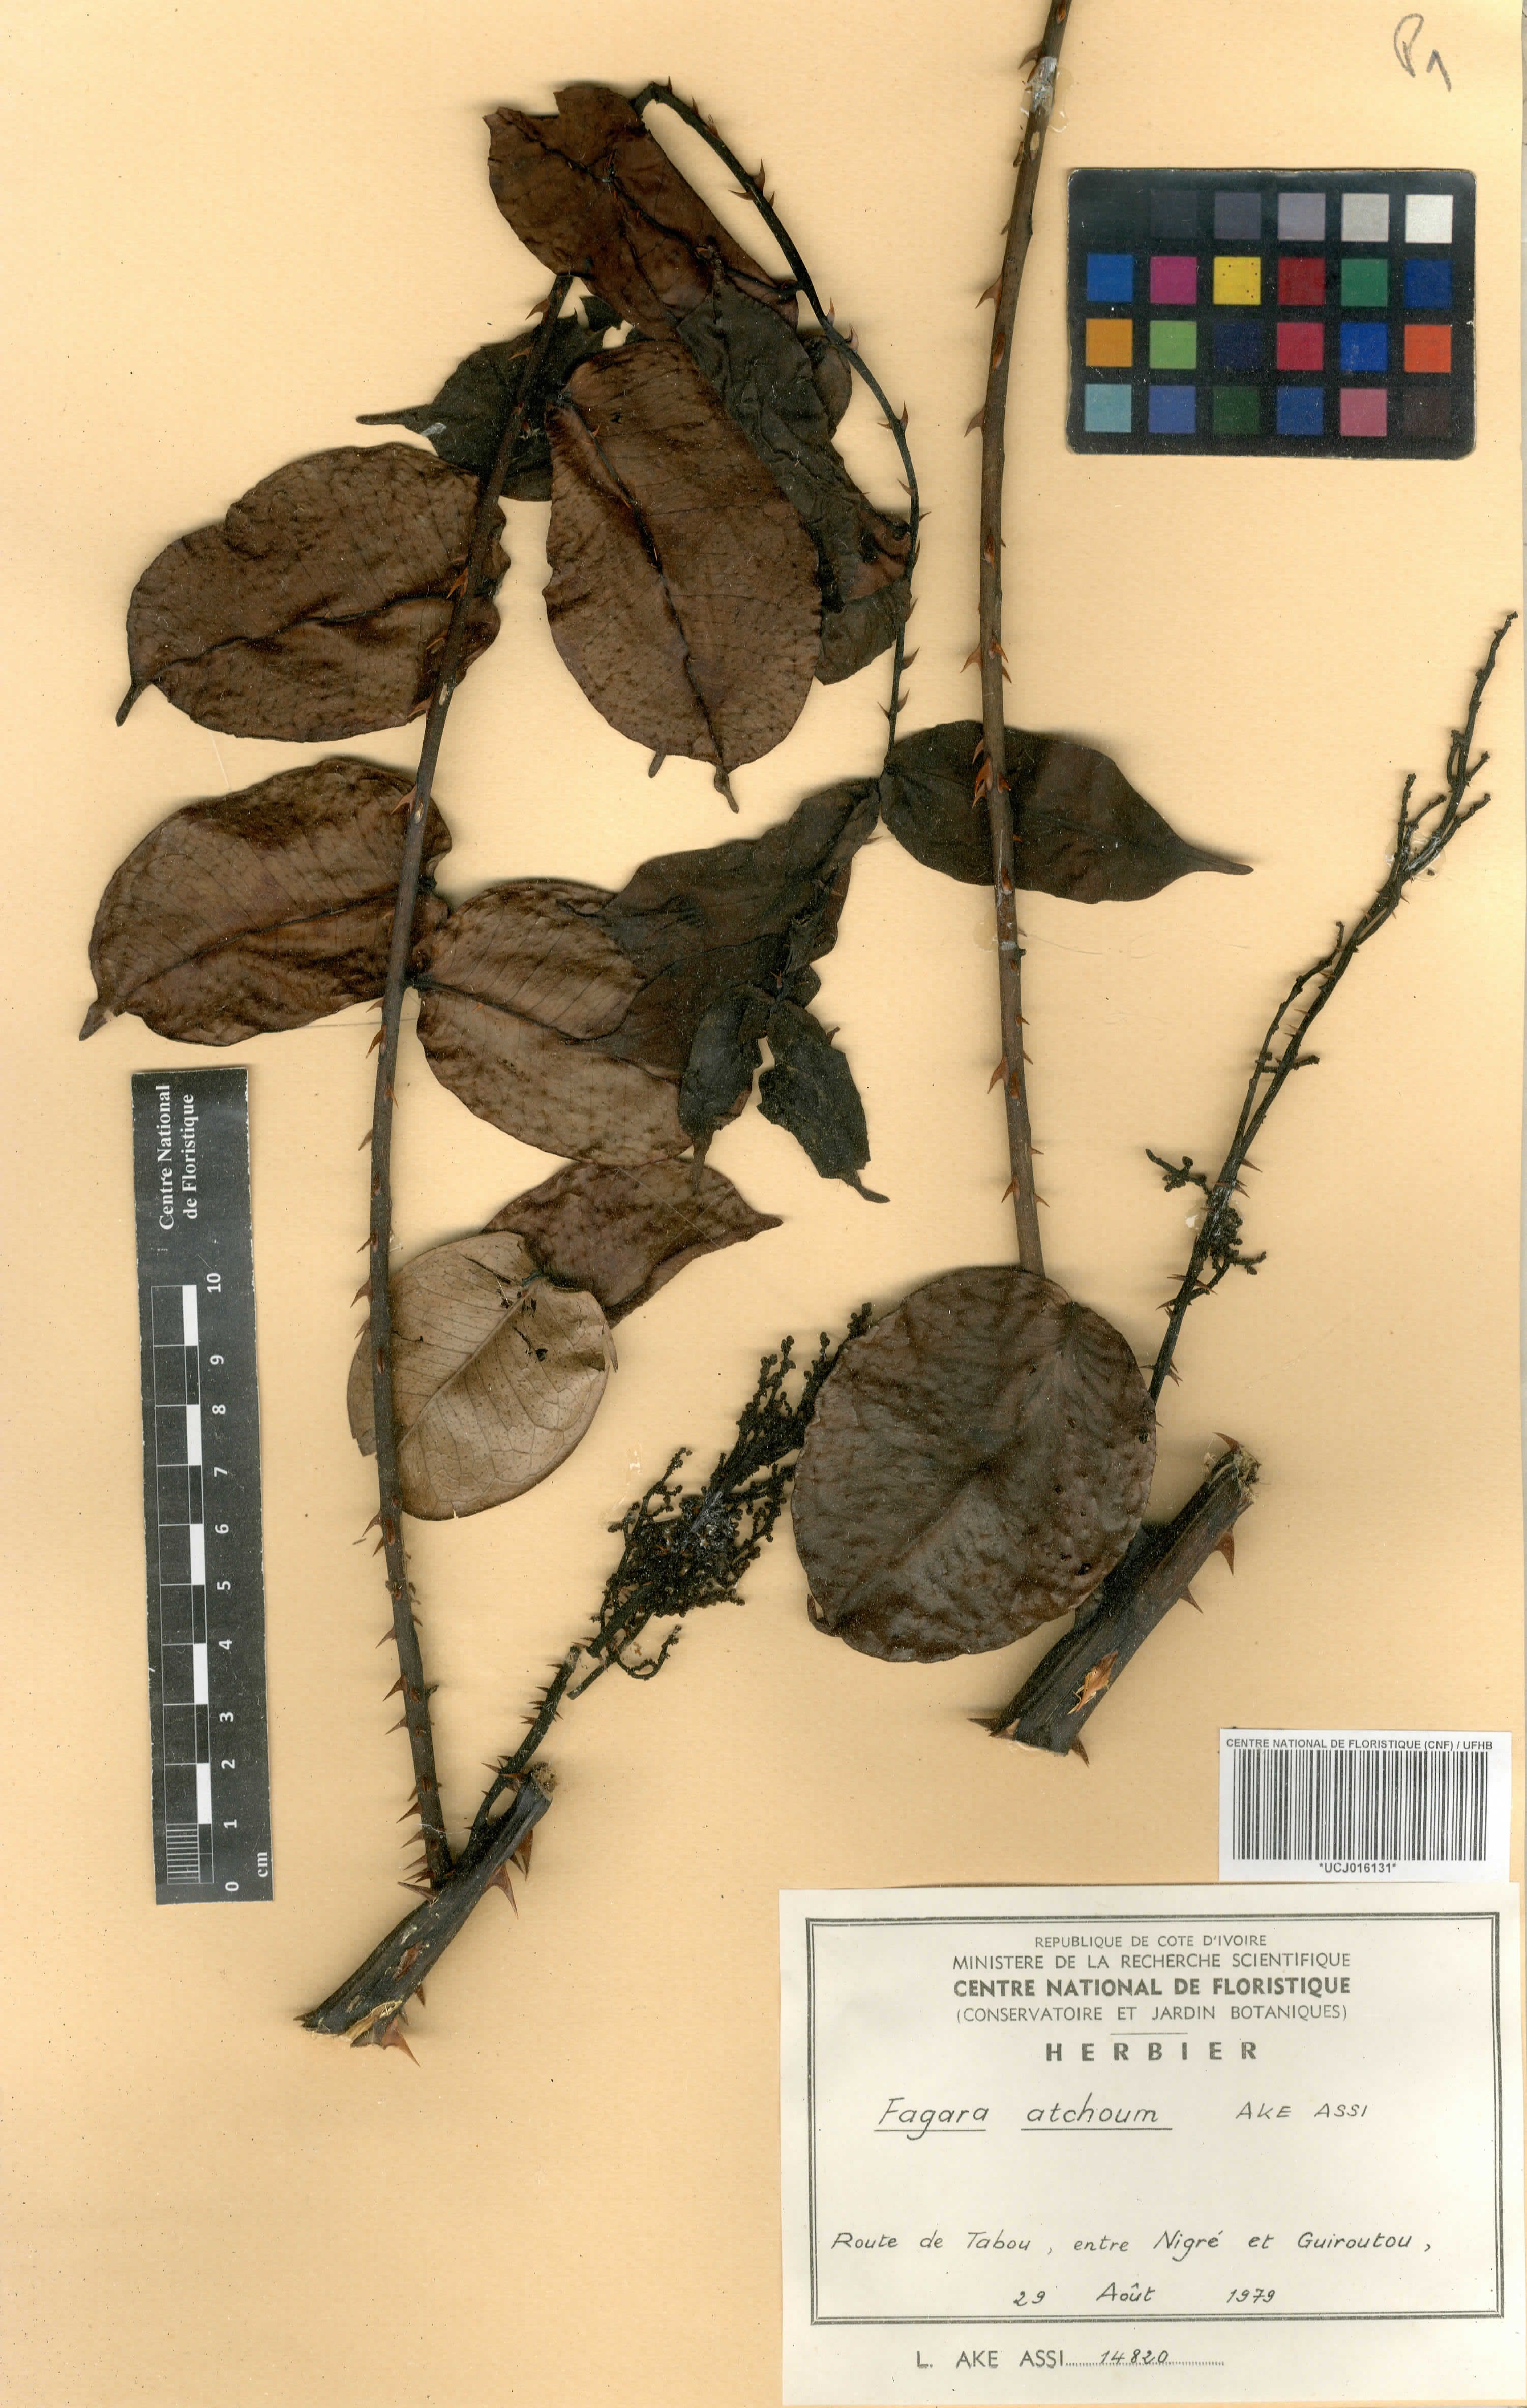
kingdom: Plantae
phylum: Tracheophyta
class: Magnoliopsida
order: Sapindales
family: Rutaceae
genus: Zanthoxylum
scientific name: Zanthoxylum atchoum
